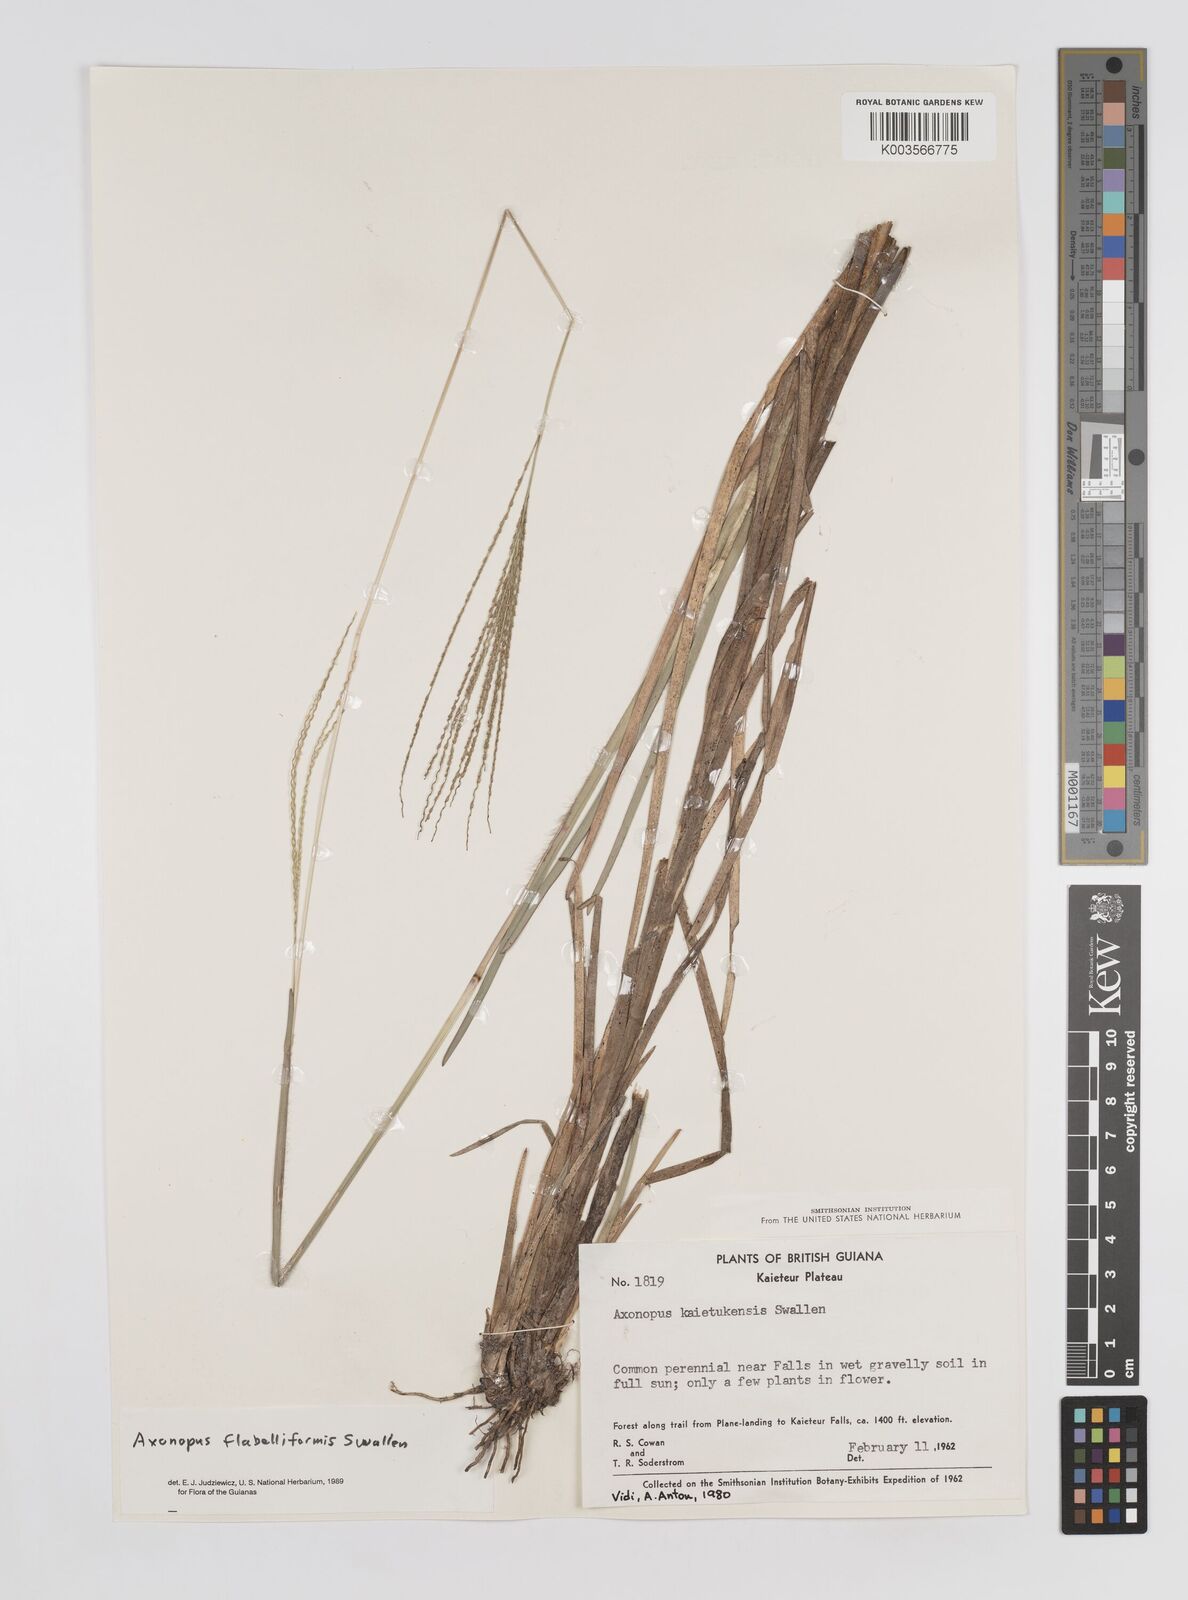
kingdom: Plantae
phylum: Tracheophyta
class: Liliopsida
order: Poales
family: Poaceae
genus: Axonopus
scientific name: Axonopus flabelliformis
